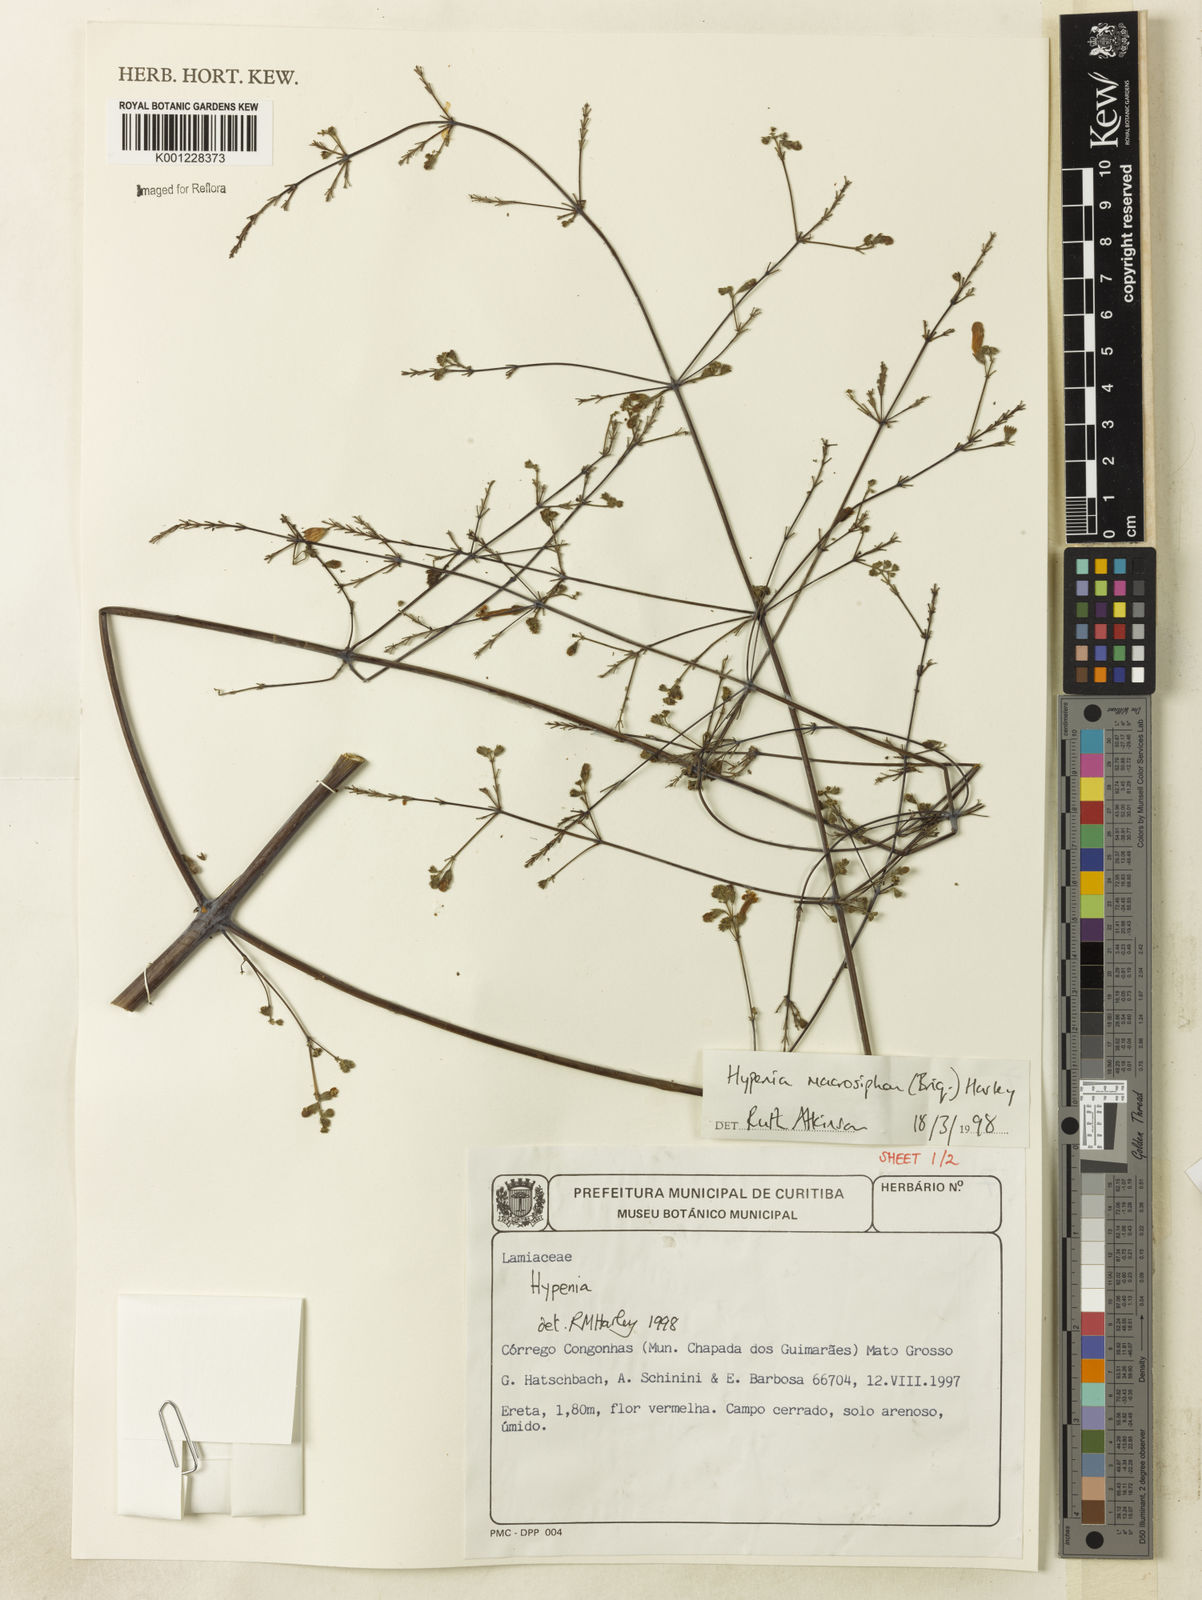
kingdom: Plantae
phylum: Tracheophyta
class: Magnoliopsida
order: Lamiales
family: Lamiaceae
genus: Hypenia
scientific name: Hypenia macrosiphon
